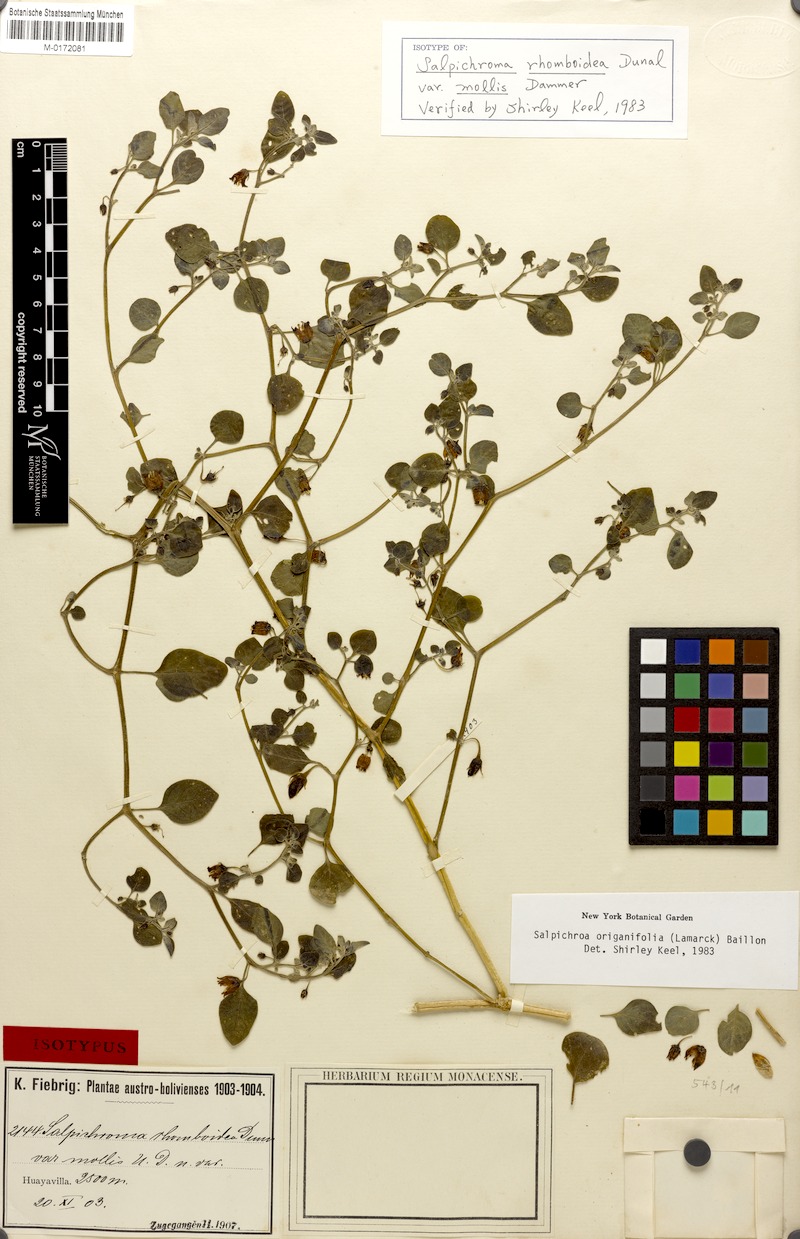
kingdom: Plantae
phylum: Tracheophyta
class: Magnoliopsida
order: Solanales
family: Solanaceae
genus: Salpichroa
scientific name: Salpichroa origanifolia
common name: Lily-of-the-valley-vine
